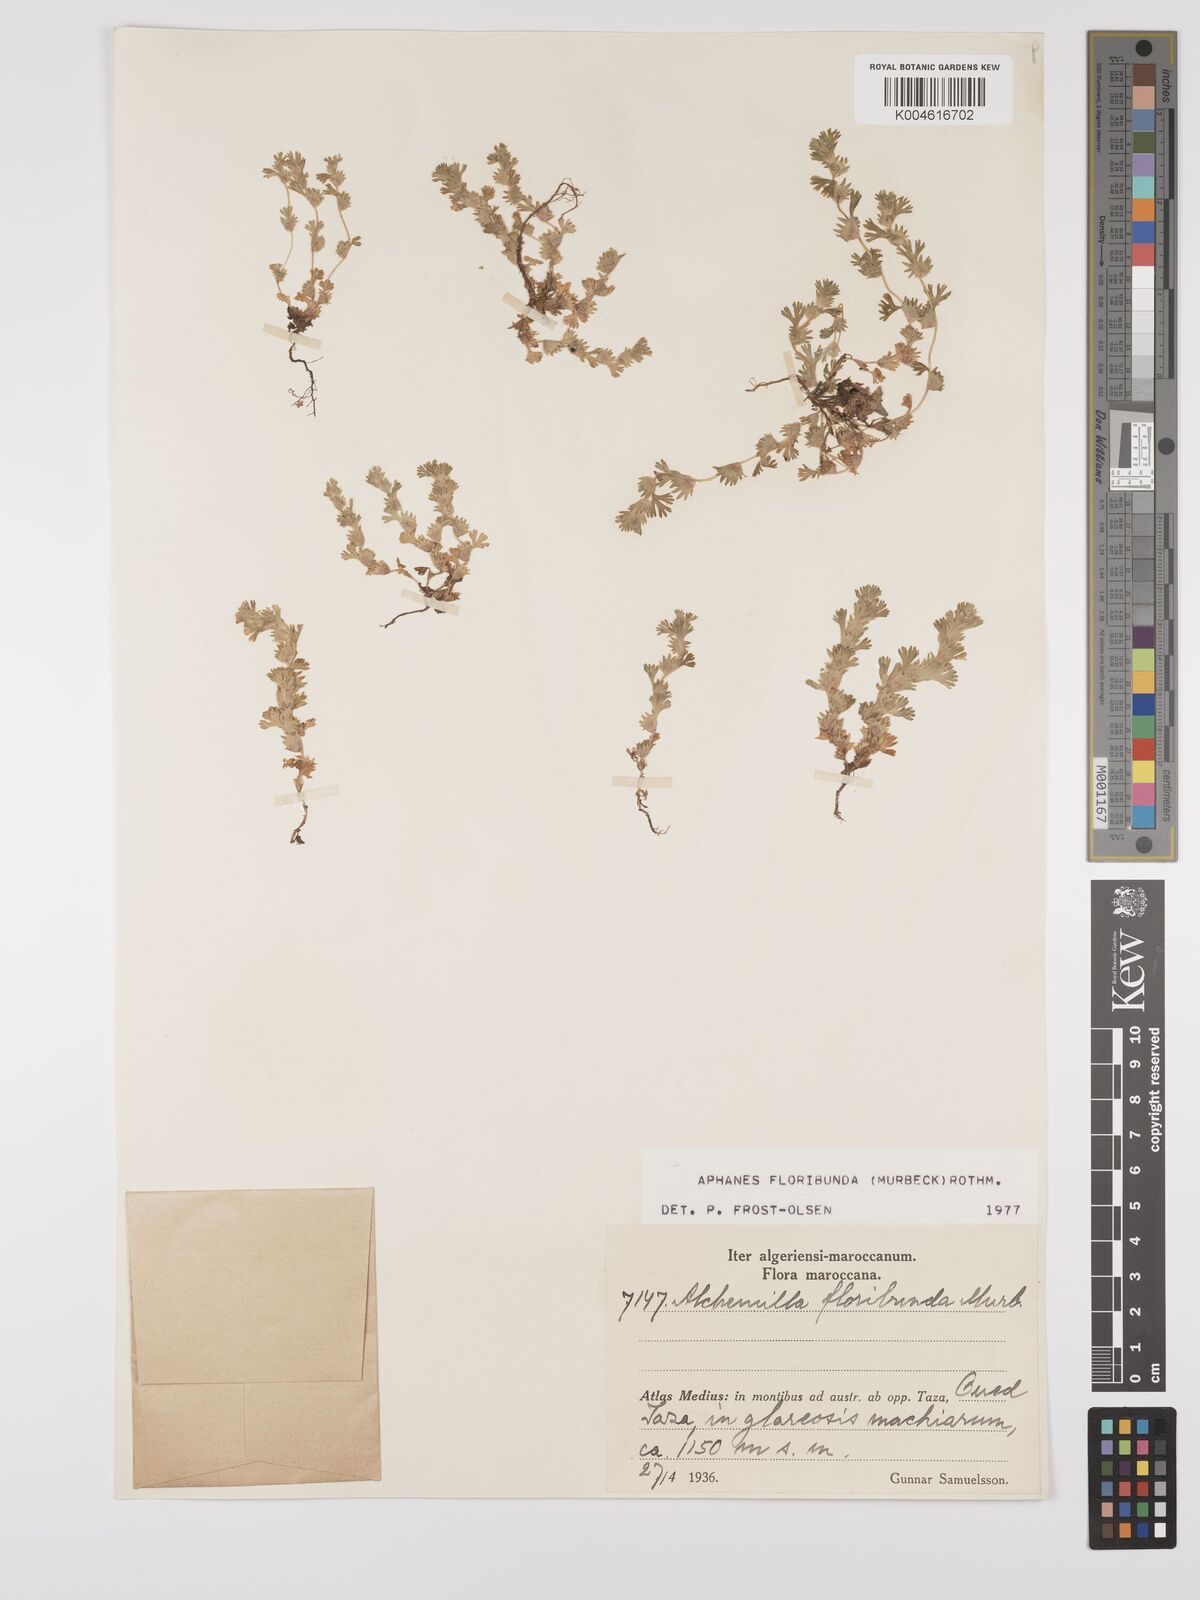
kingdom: Plantae
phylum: Tracheophyta
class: Magnoliopsida
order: Rosales
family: Rosaceae
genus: Aphanes
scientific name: Aphanes floribunda
